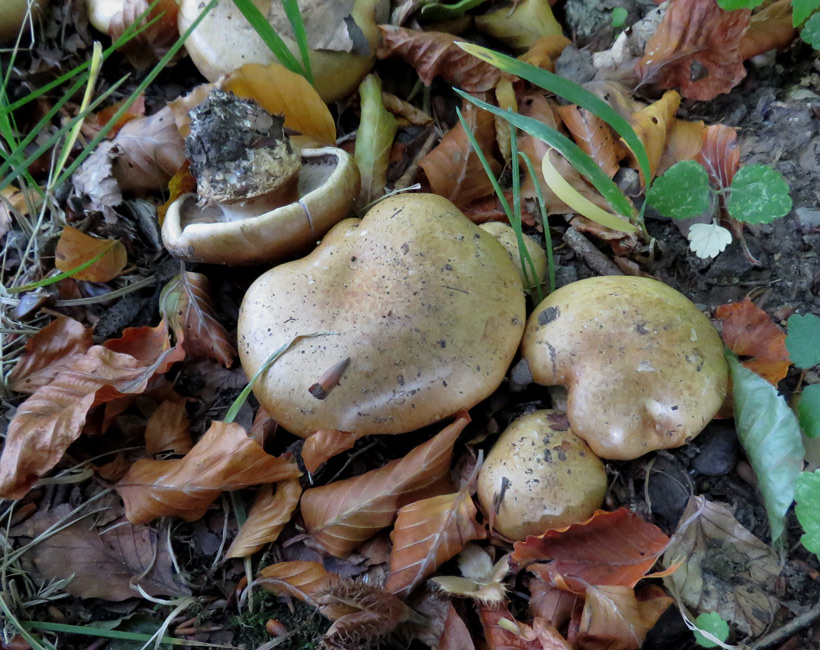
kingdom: Fungi
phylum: Basidiomycota
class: Agaricomycetes
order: Agaricales
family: Cortinariaceae
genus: Cortinarius
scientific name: Cortinarius anserinus
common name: bøge-slørhat
